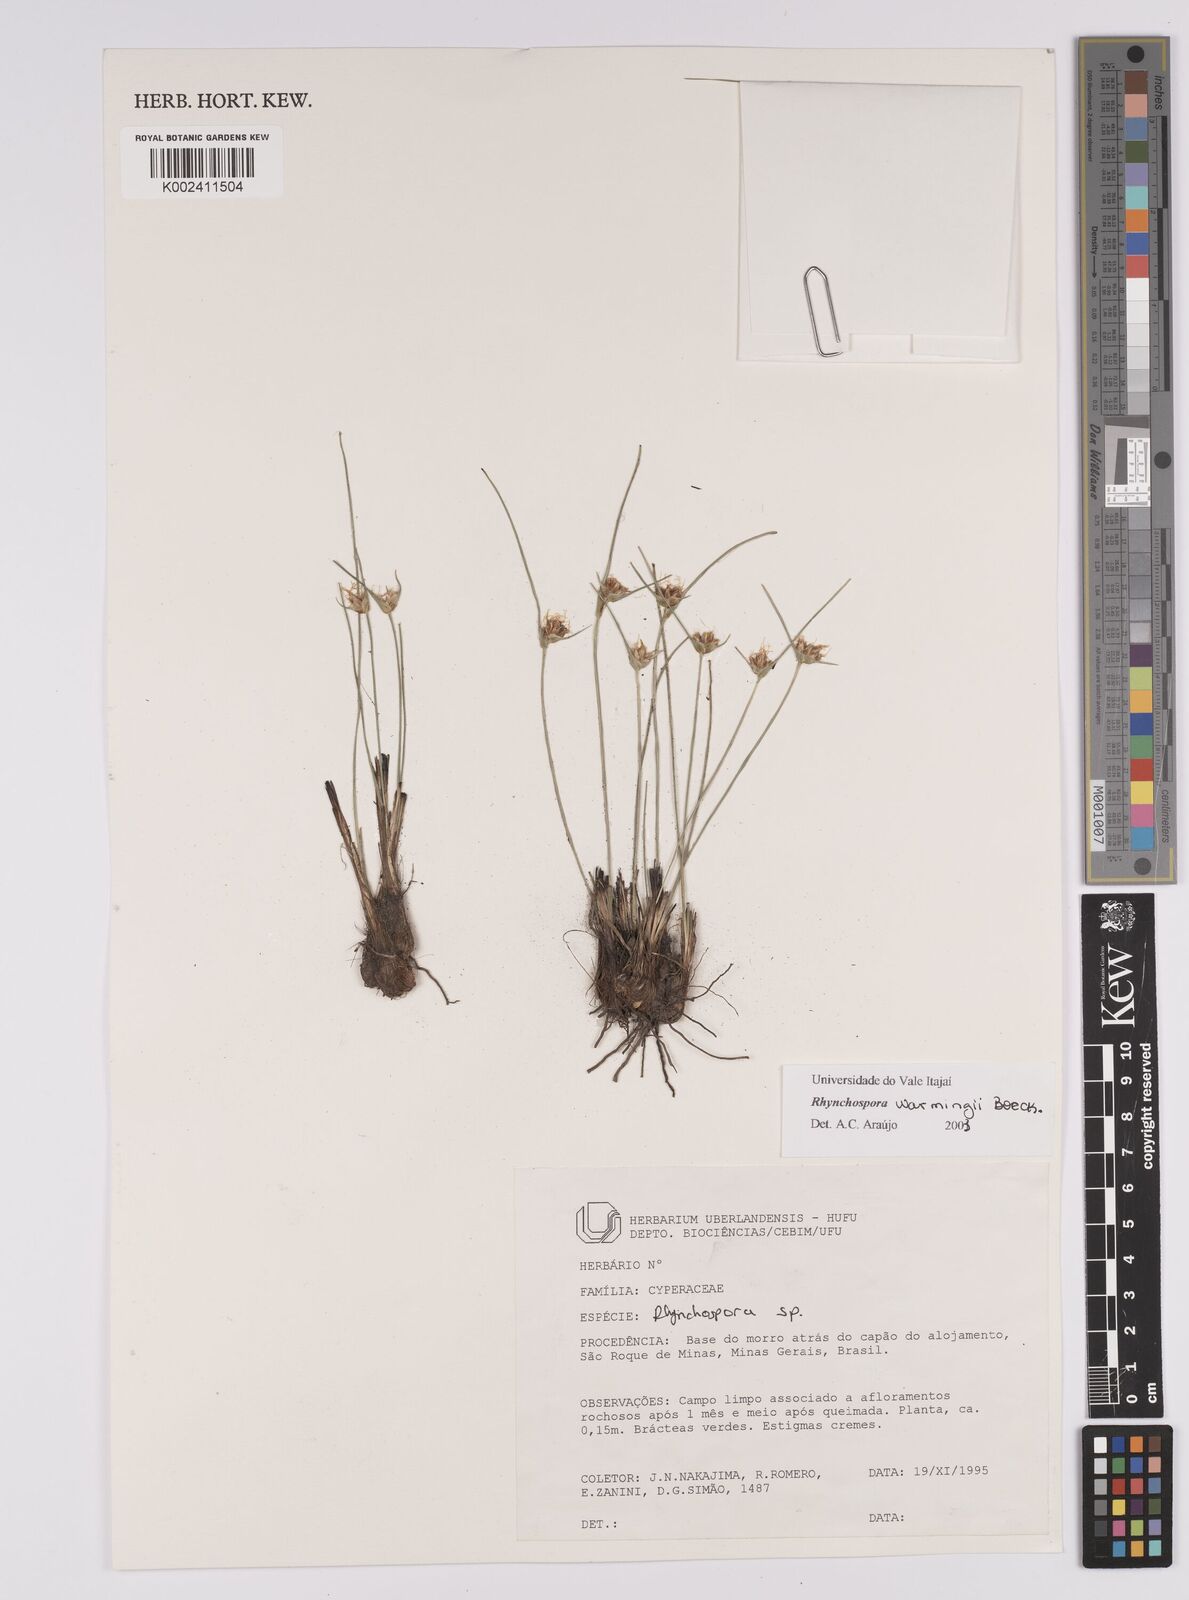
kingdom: Plantae
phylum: Tracheophyta
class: Liliopsida
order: Poales
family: Cyperaceae
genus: Rhynchospora
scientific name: Rhynchospora warmingii
